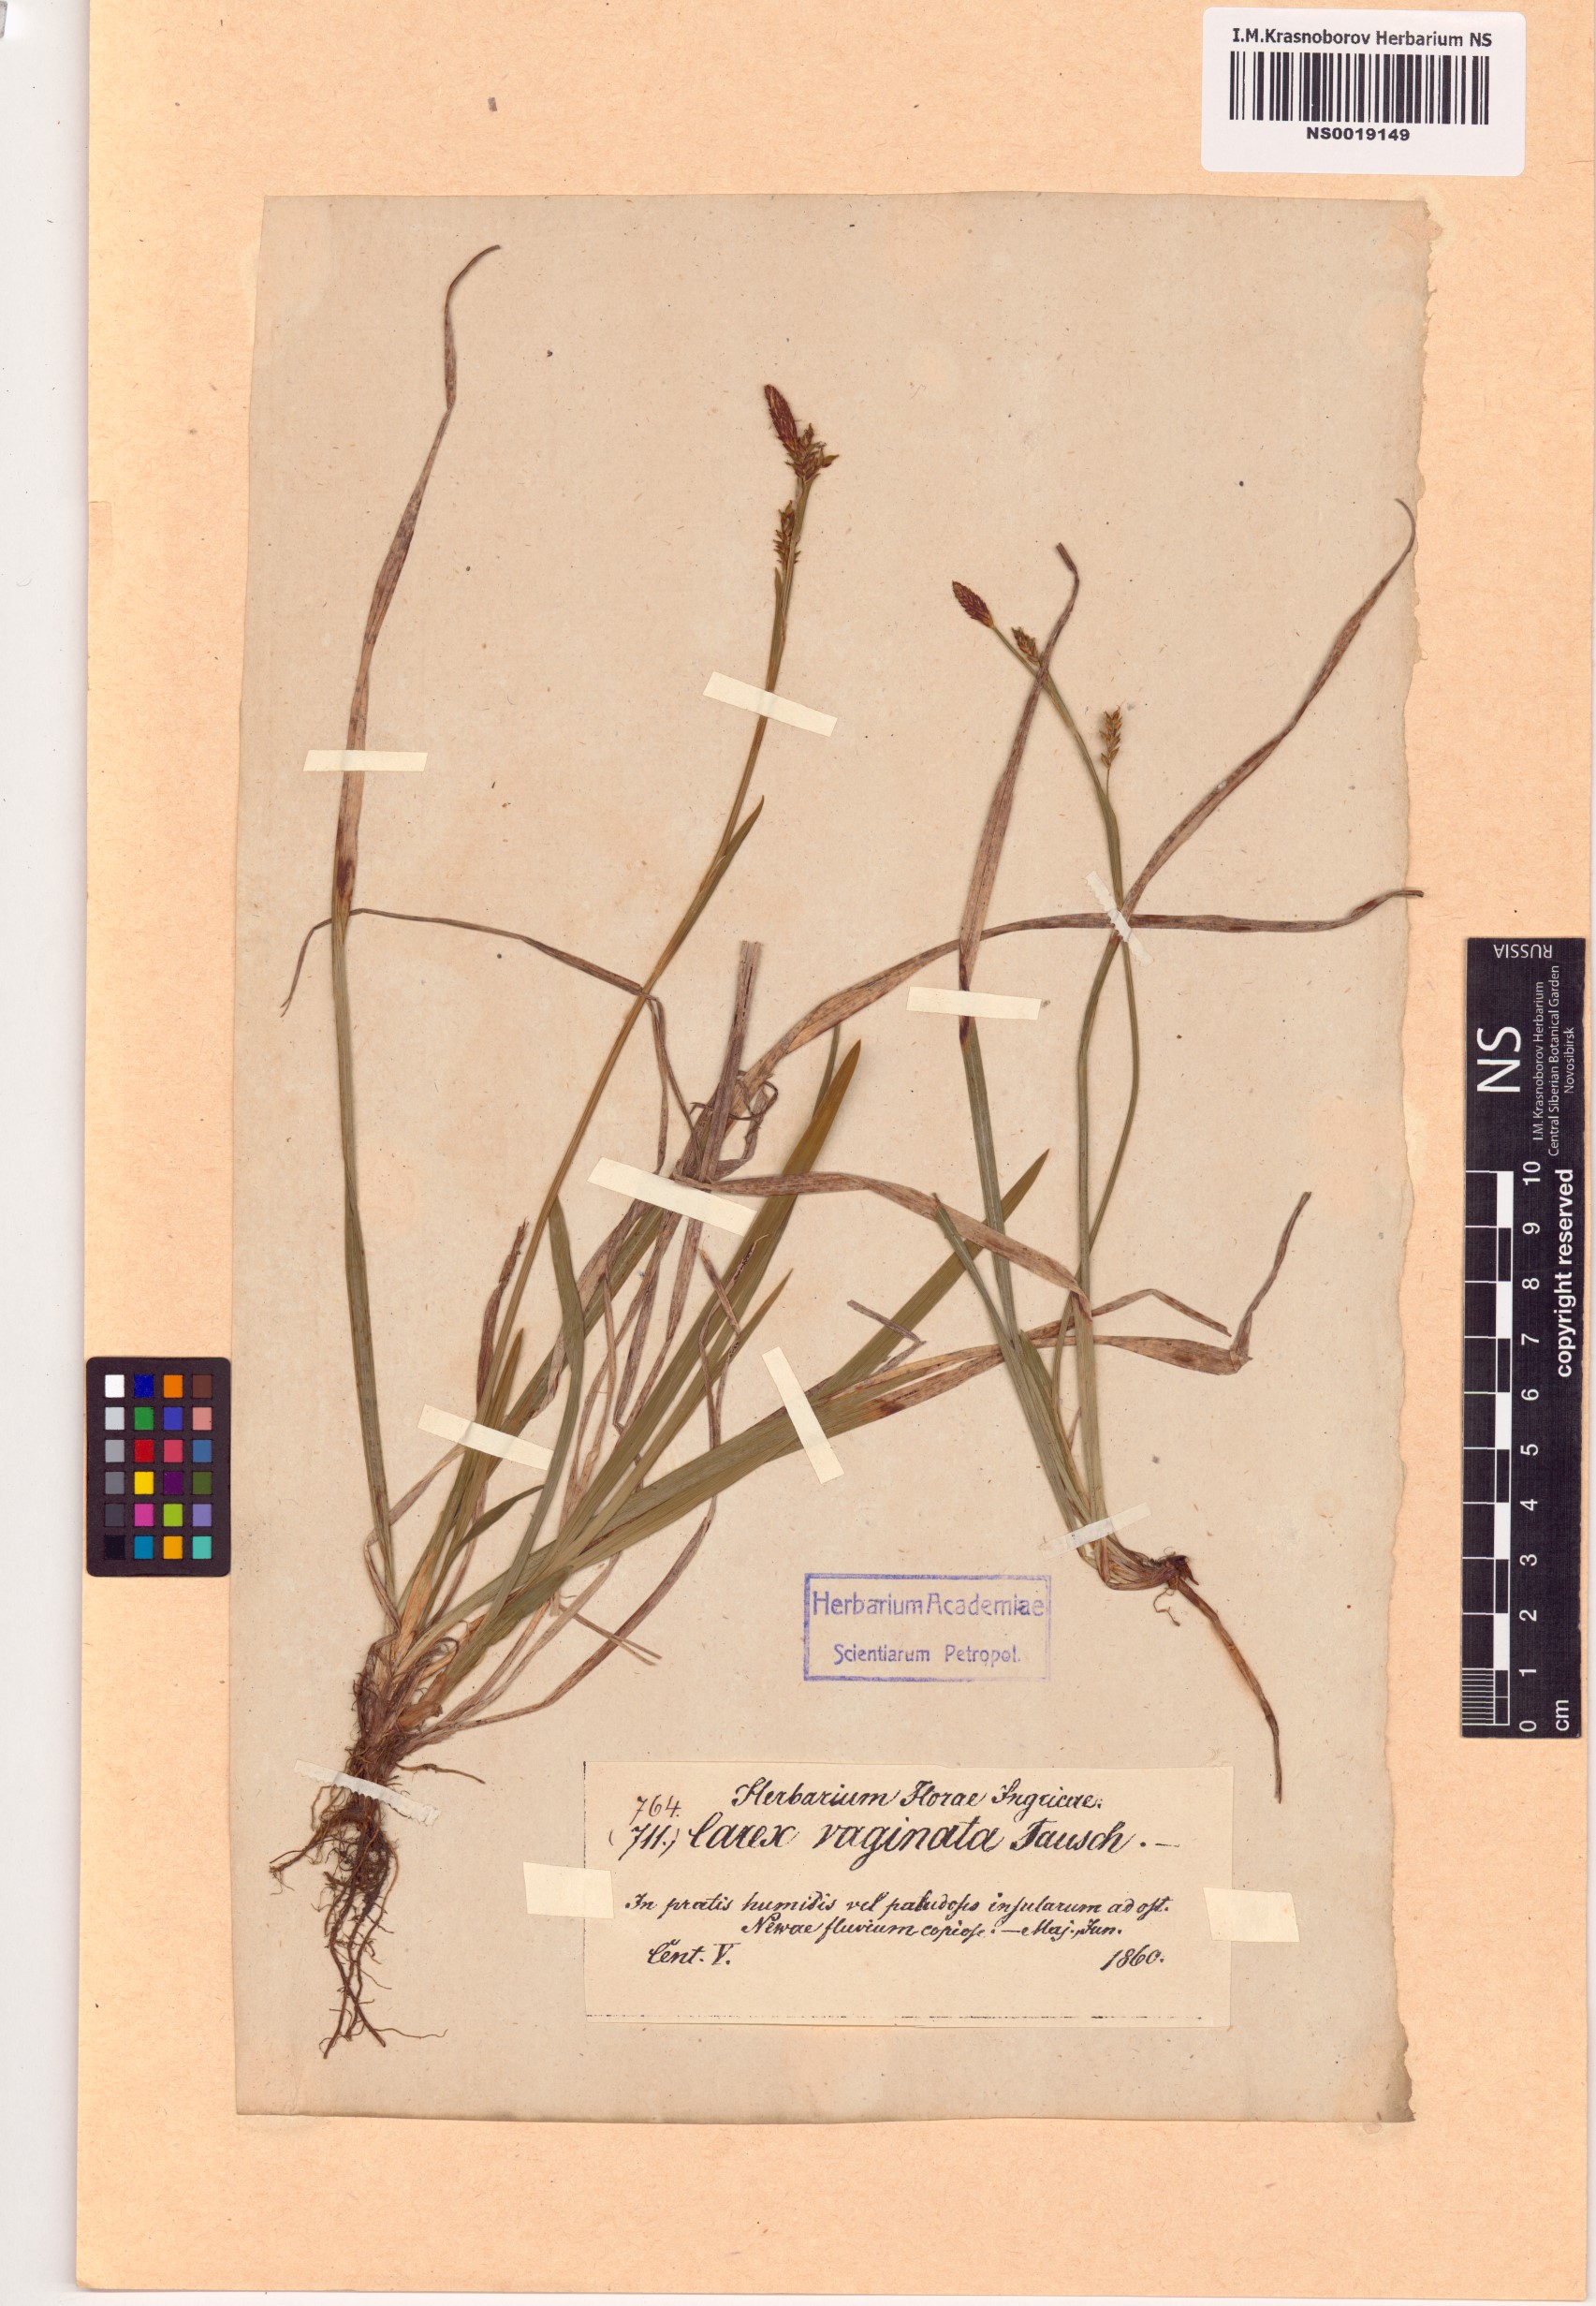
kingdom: Plantae
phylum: Tracheophyta
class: Liliopsida
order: Poales
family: Cyperaceae
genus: Carex
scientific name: Carex vaginata
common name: Sheathed sedge
